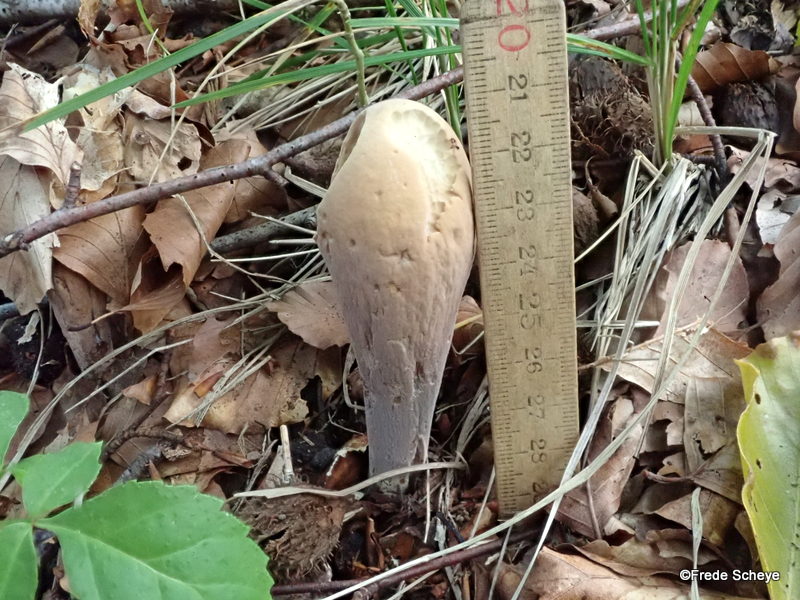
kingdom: Fungi
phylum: Basidiomycota
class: Agaricomycetes
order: Gomphales
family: Clavariadelphaceae
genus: Clavariadelphus
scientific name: Clavariadelphus pistillaris
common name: herkules-kæmpekølle
